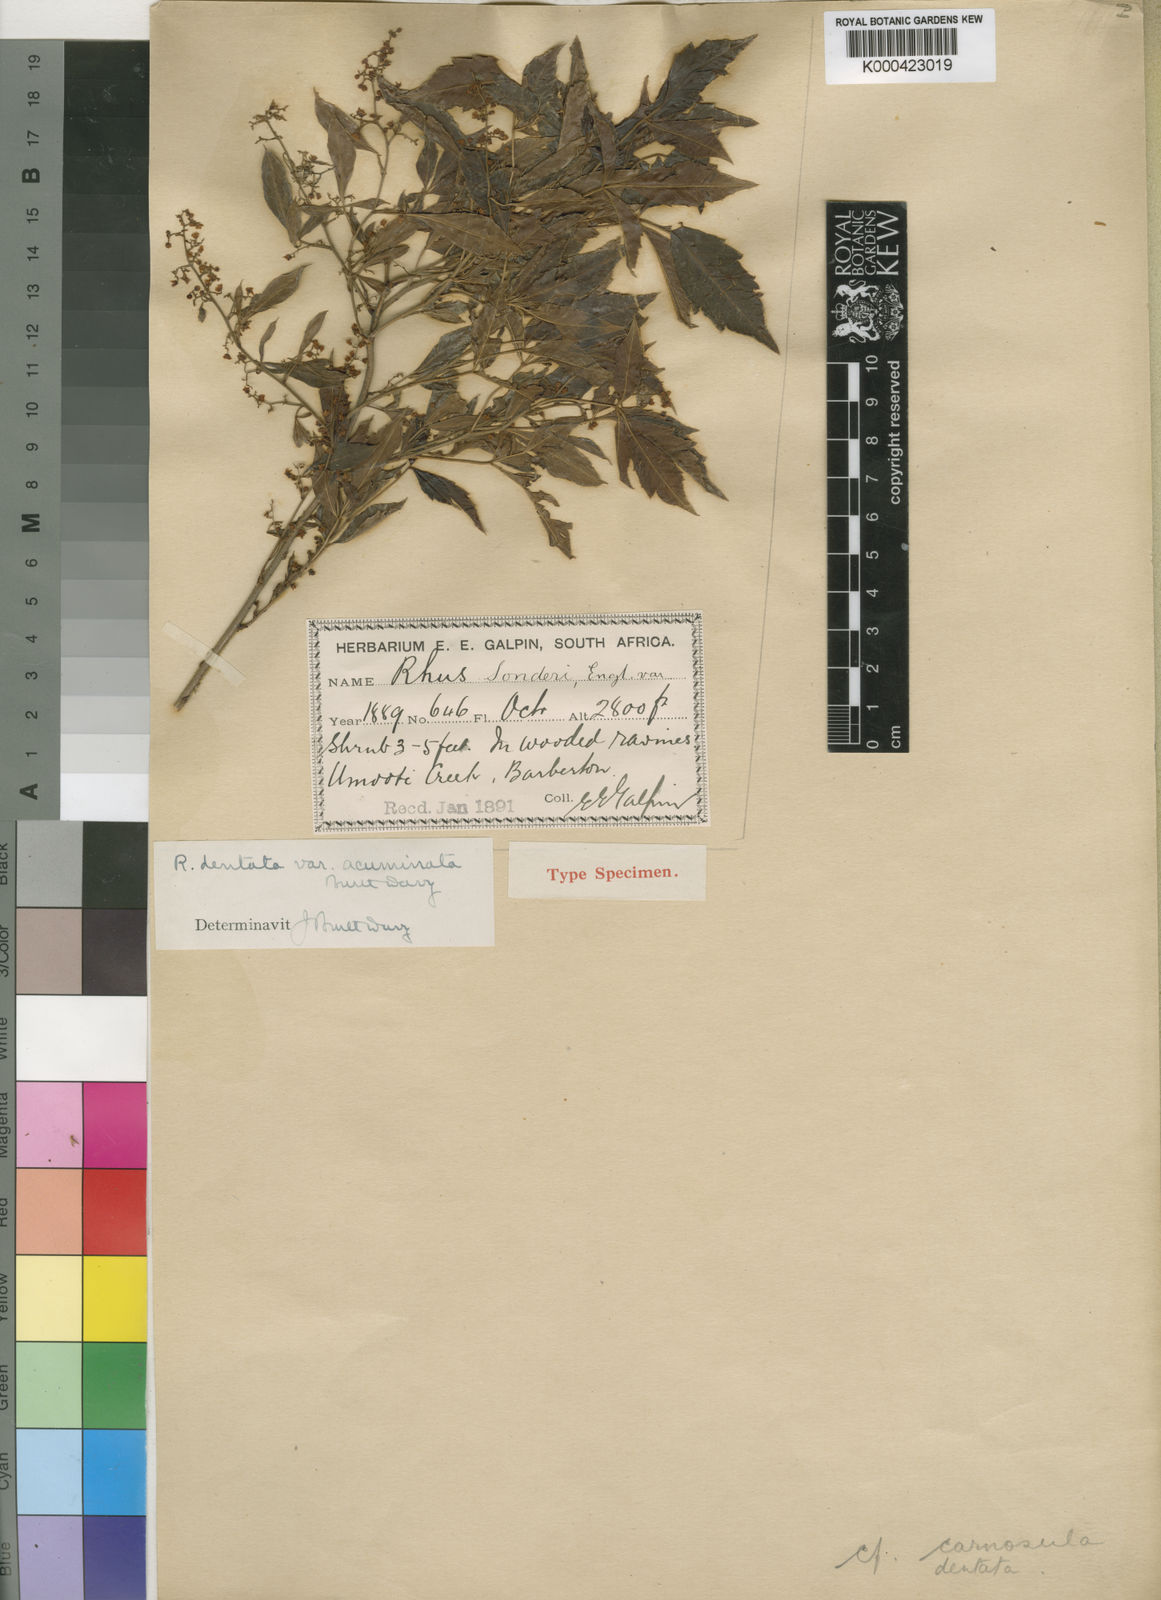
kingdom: Plantae
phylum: Tracheophyta
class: Magnoliopsida
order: Sapindales
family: Anacardiaceae
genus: Searsia
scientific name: Searsia dentata
